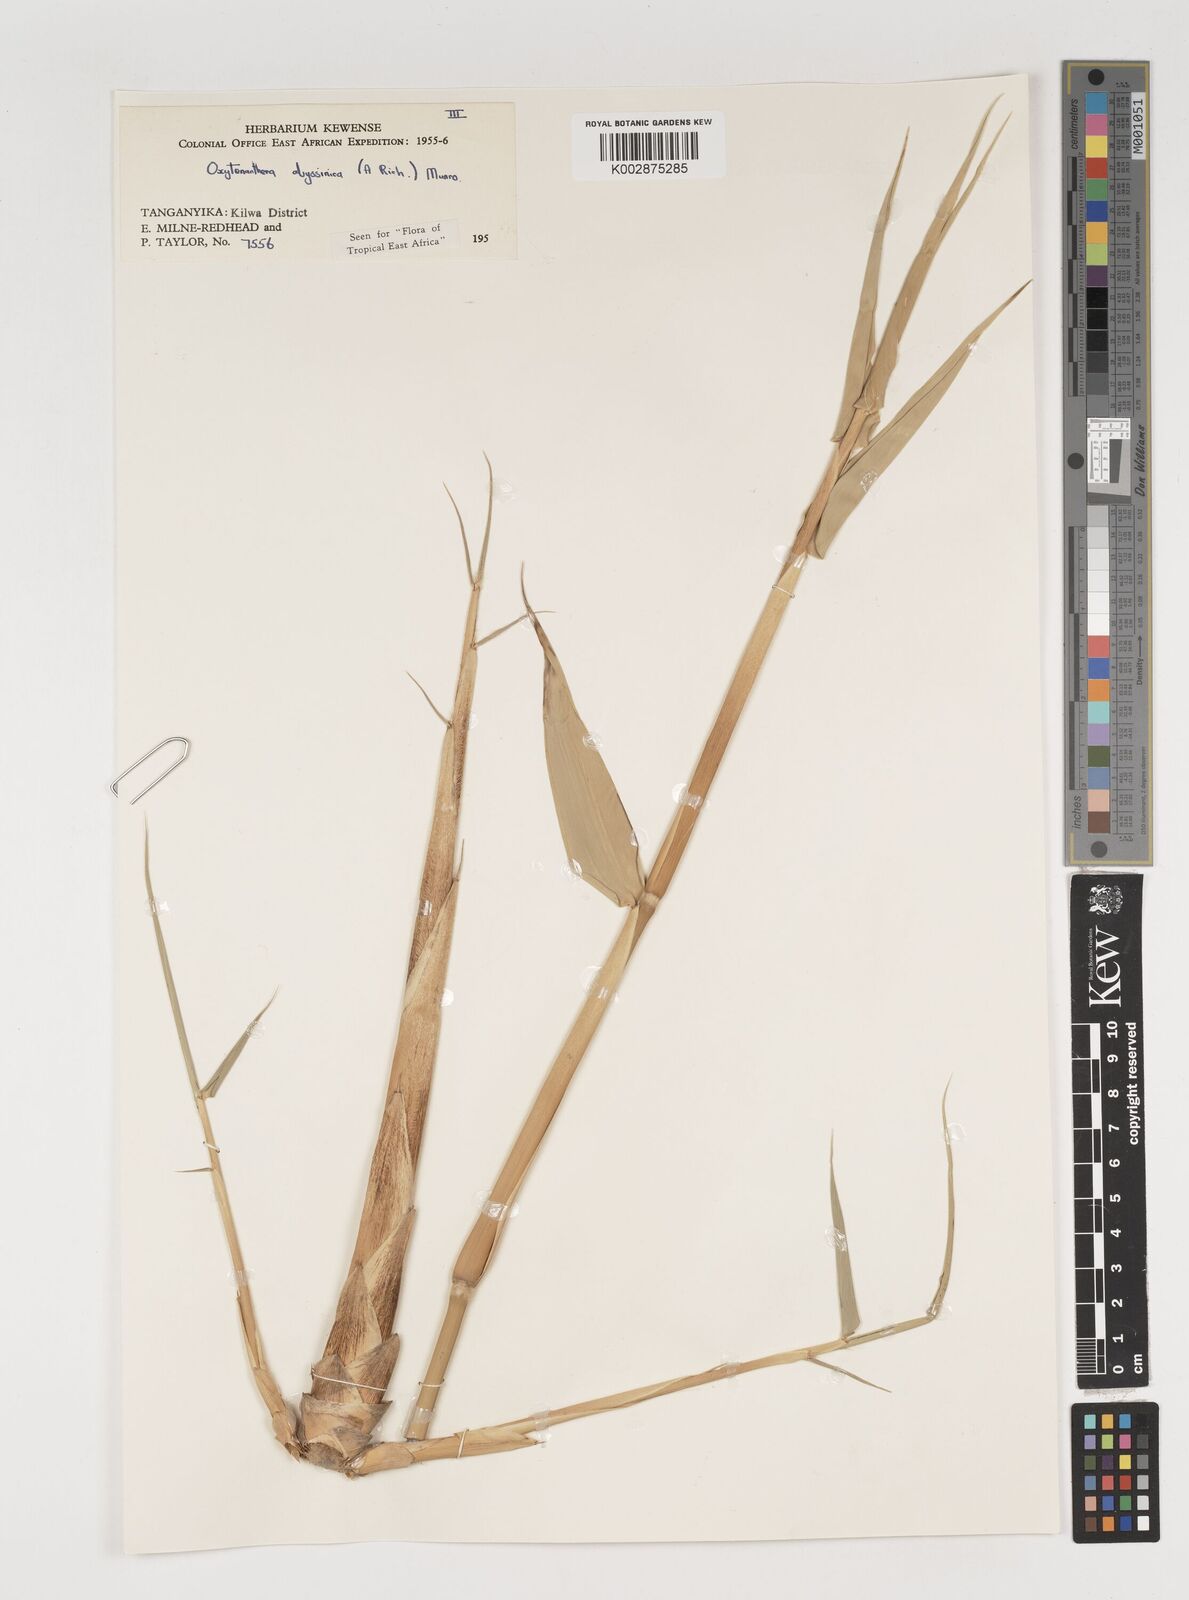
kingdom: Plantae
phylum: Tracheophyta
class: Liliopsida
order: Poales
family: Poaceae
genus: Oxytenanthera
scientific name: Oxytenanthera abyssinica
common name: Wine bamboo
